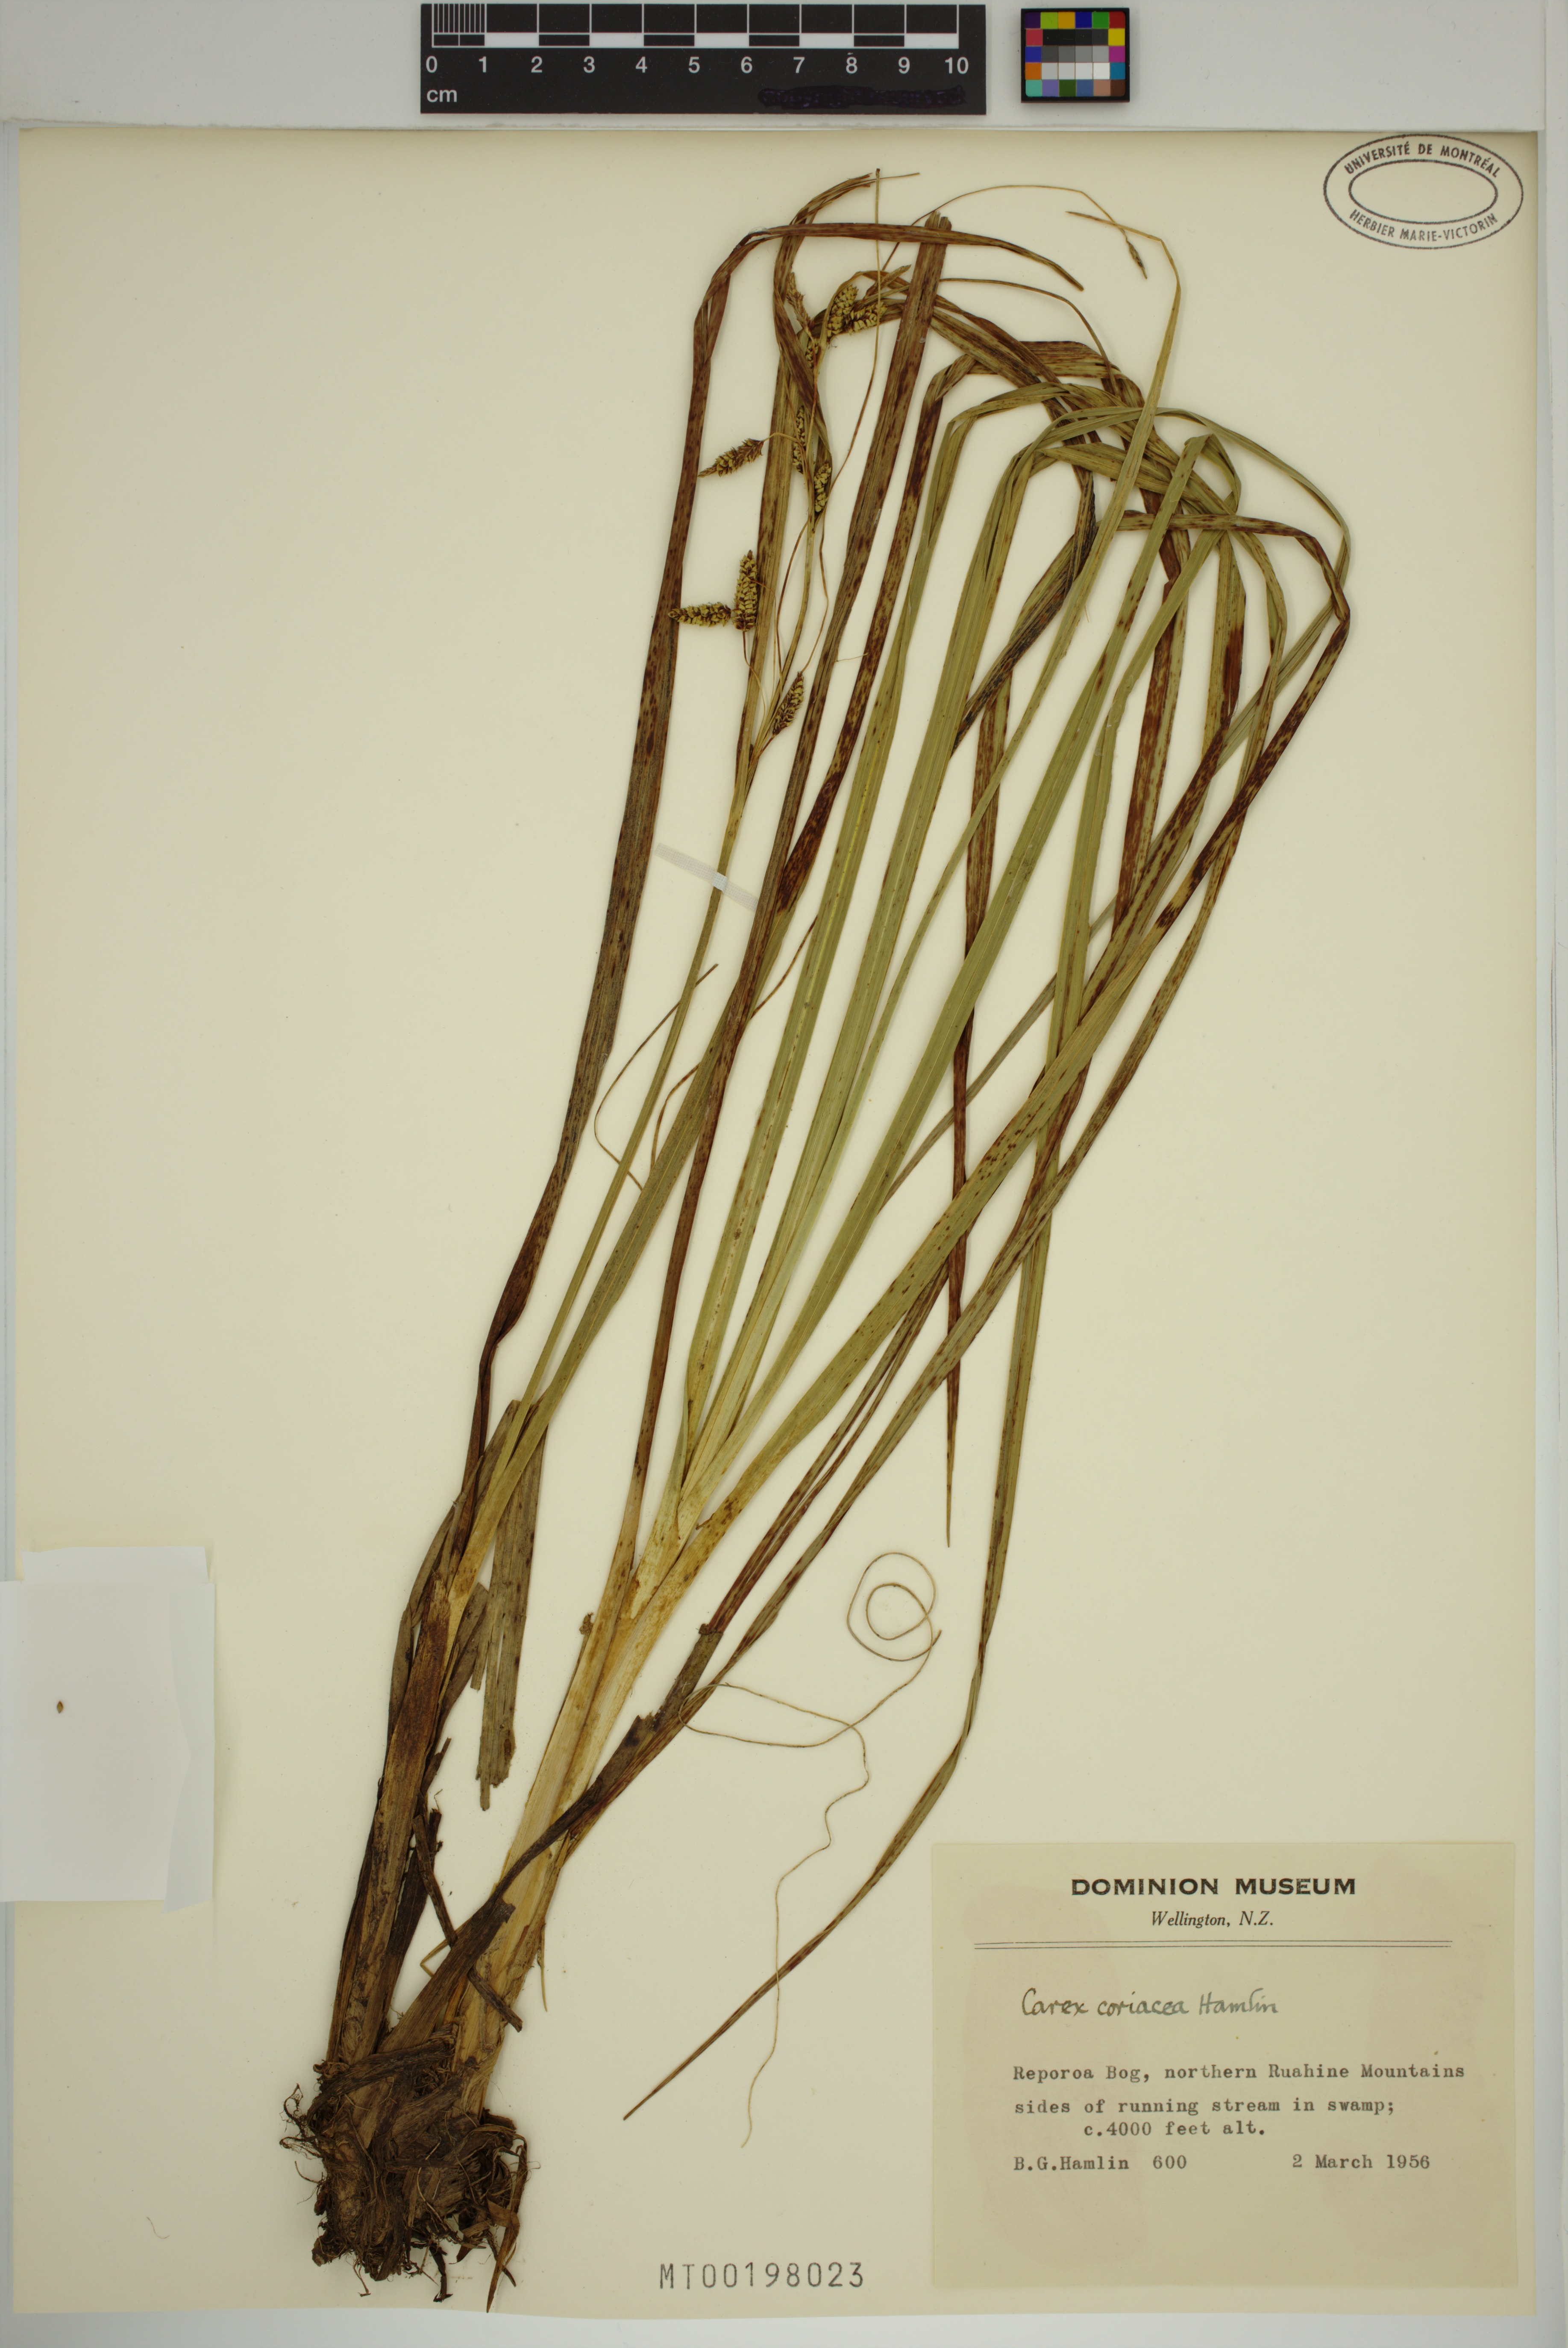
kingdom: Plantae
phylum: Tracheophyta
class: Liliopsida
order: Poales
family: Cyperaceae
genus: Carex
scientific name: Carex coriacea
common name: Rautahi
